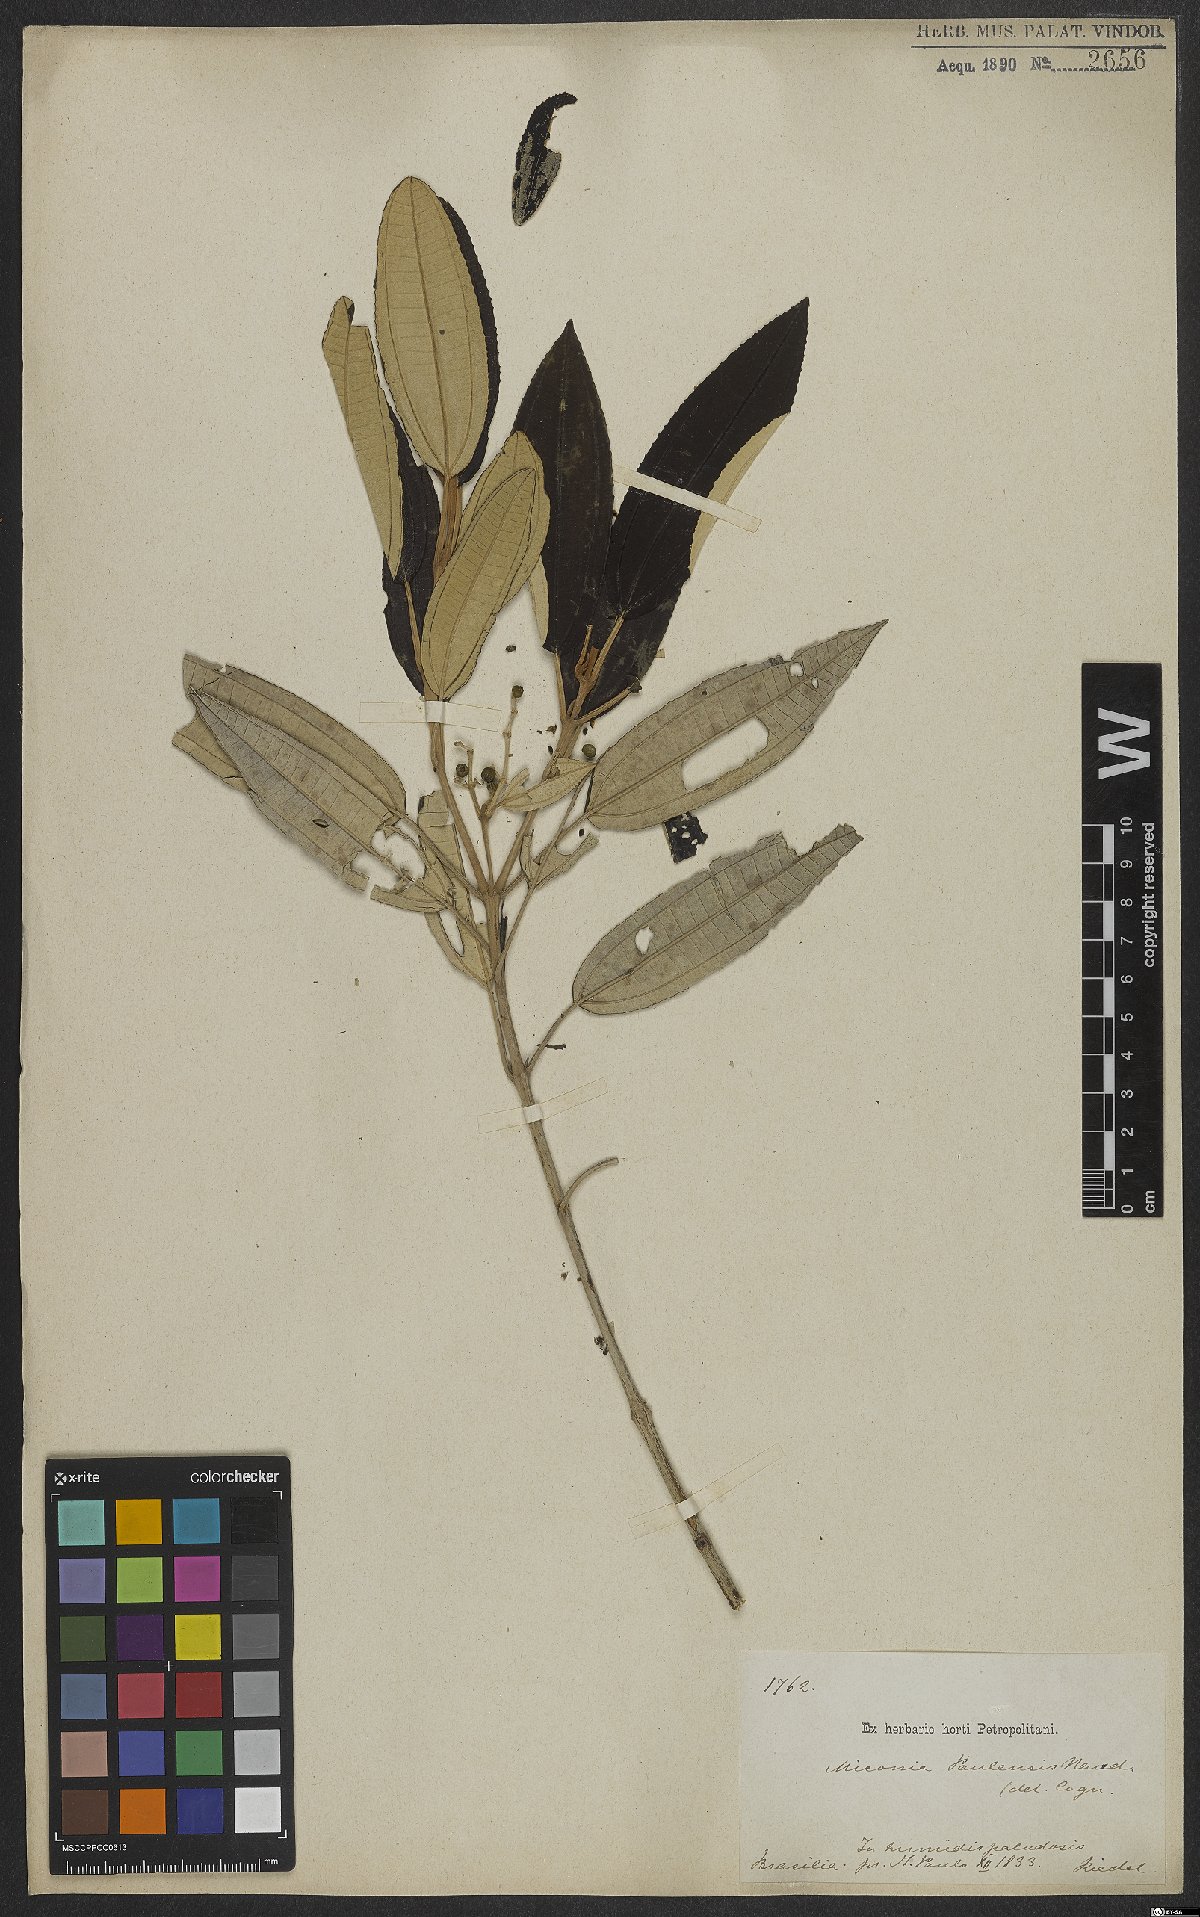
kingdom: Plantae
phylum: Tracheophyta
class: Magnoliopsida
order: Myrtales
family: Melastomataceae
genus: Miconia
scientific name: Miconia cinerascens
